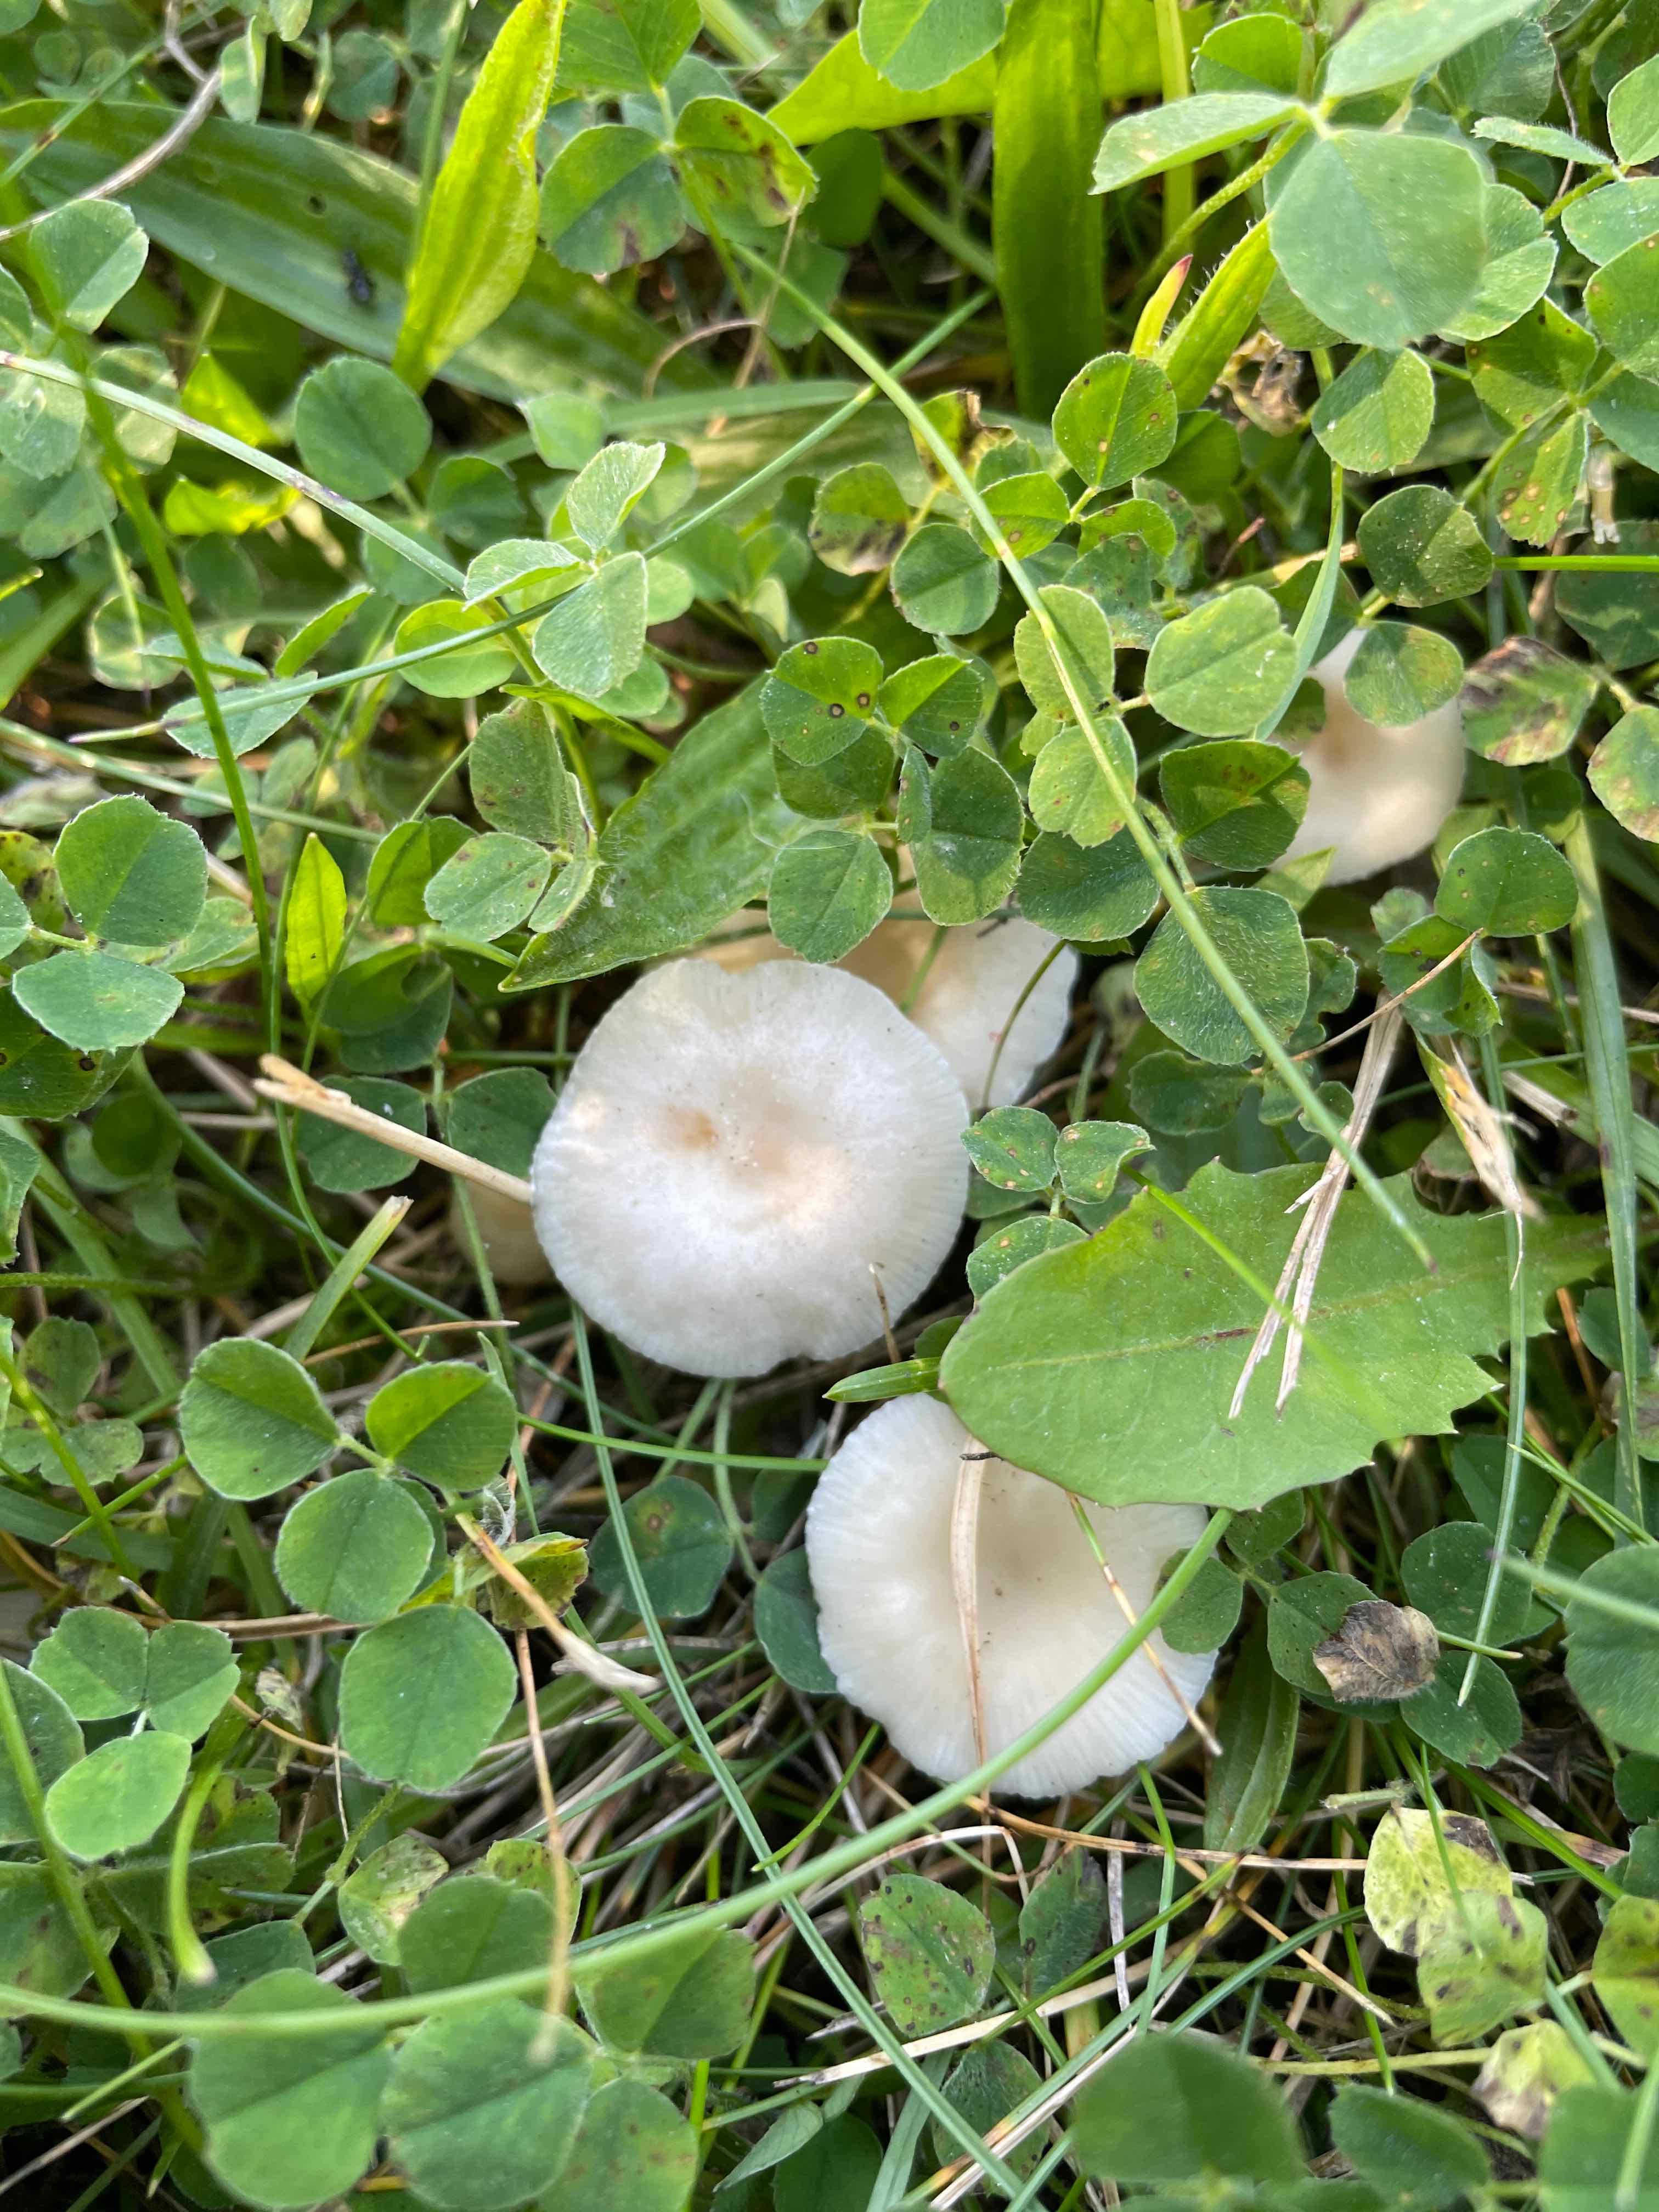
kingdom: Fungi
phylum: Basidiomycota
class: Agaricomycetes
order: Agaricales
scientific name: Agaricales
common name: champignonordenen
